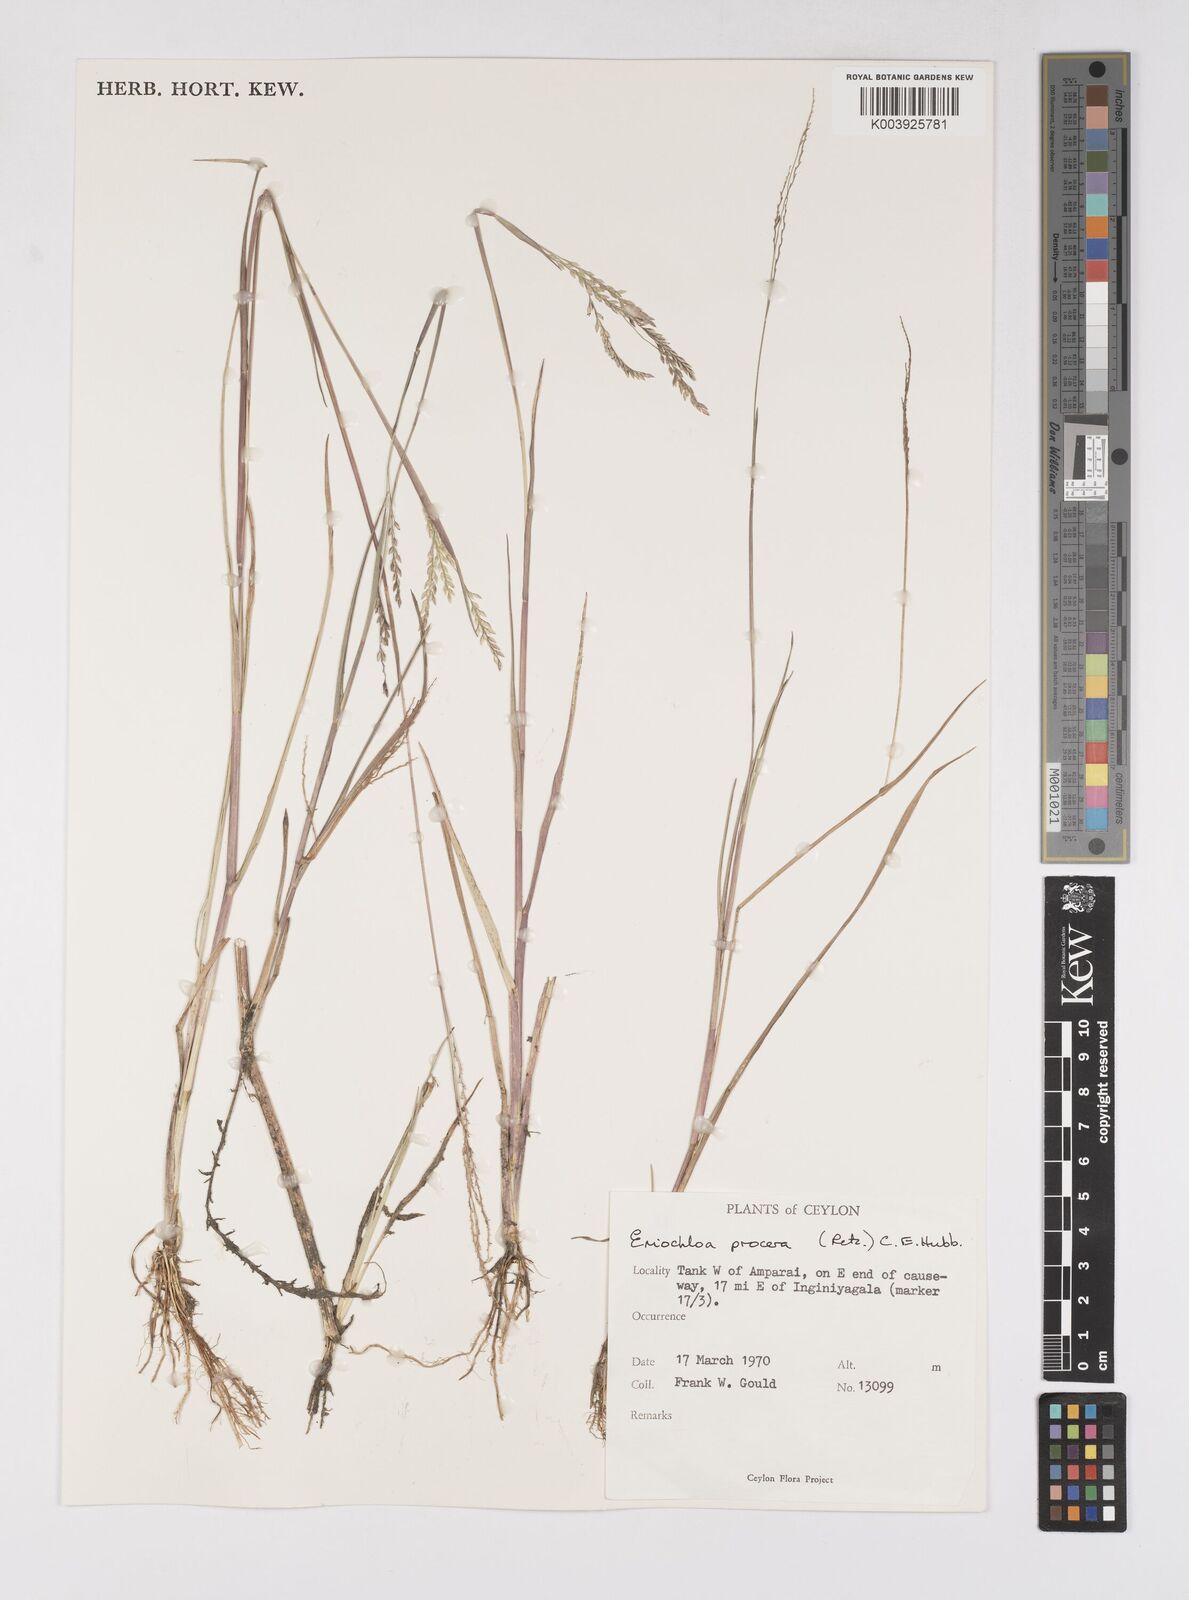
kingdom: Plantae
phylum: Tracheophyta
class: Liliopsida
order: Poales
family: Poaceae
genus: Eriochloa
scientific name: Eriochloa procera
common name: Spring grass
